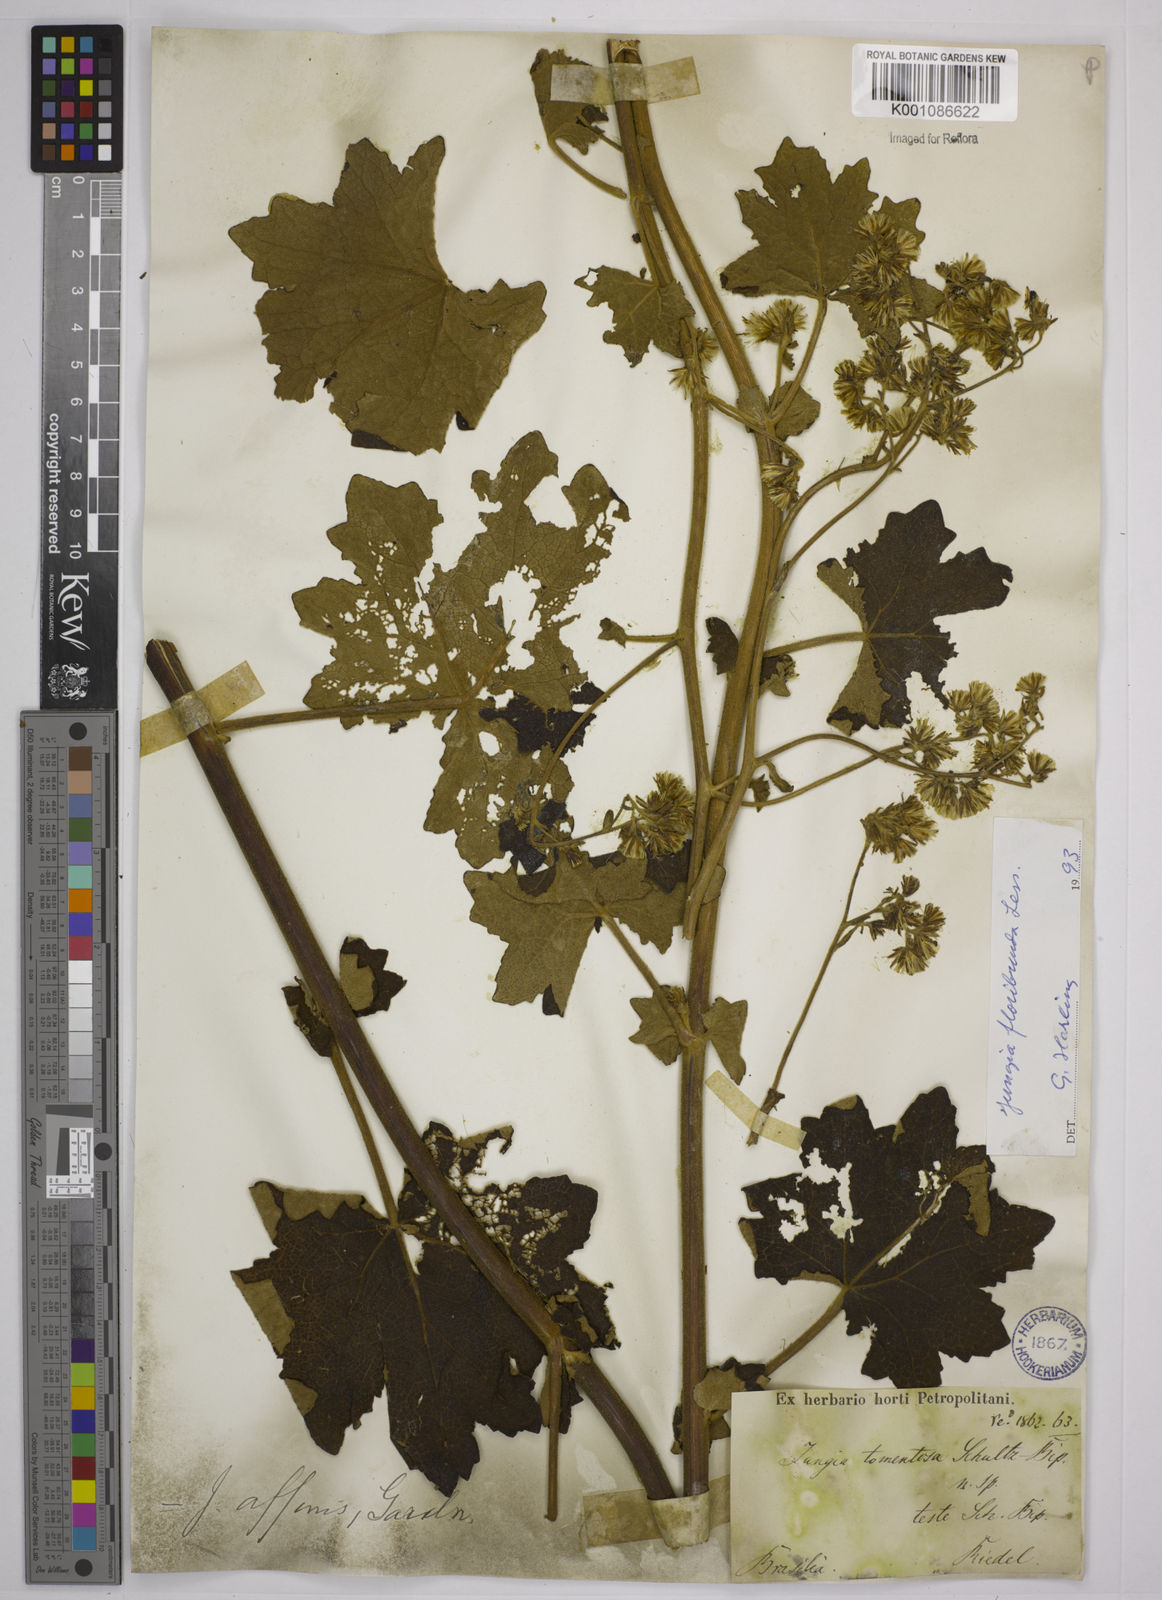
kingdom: Plantae
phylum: Tracheophyta
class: Magnoliopsida
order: Asterales
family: Asteraceae
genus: Jungia
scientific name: Jungia floribunda
